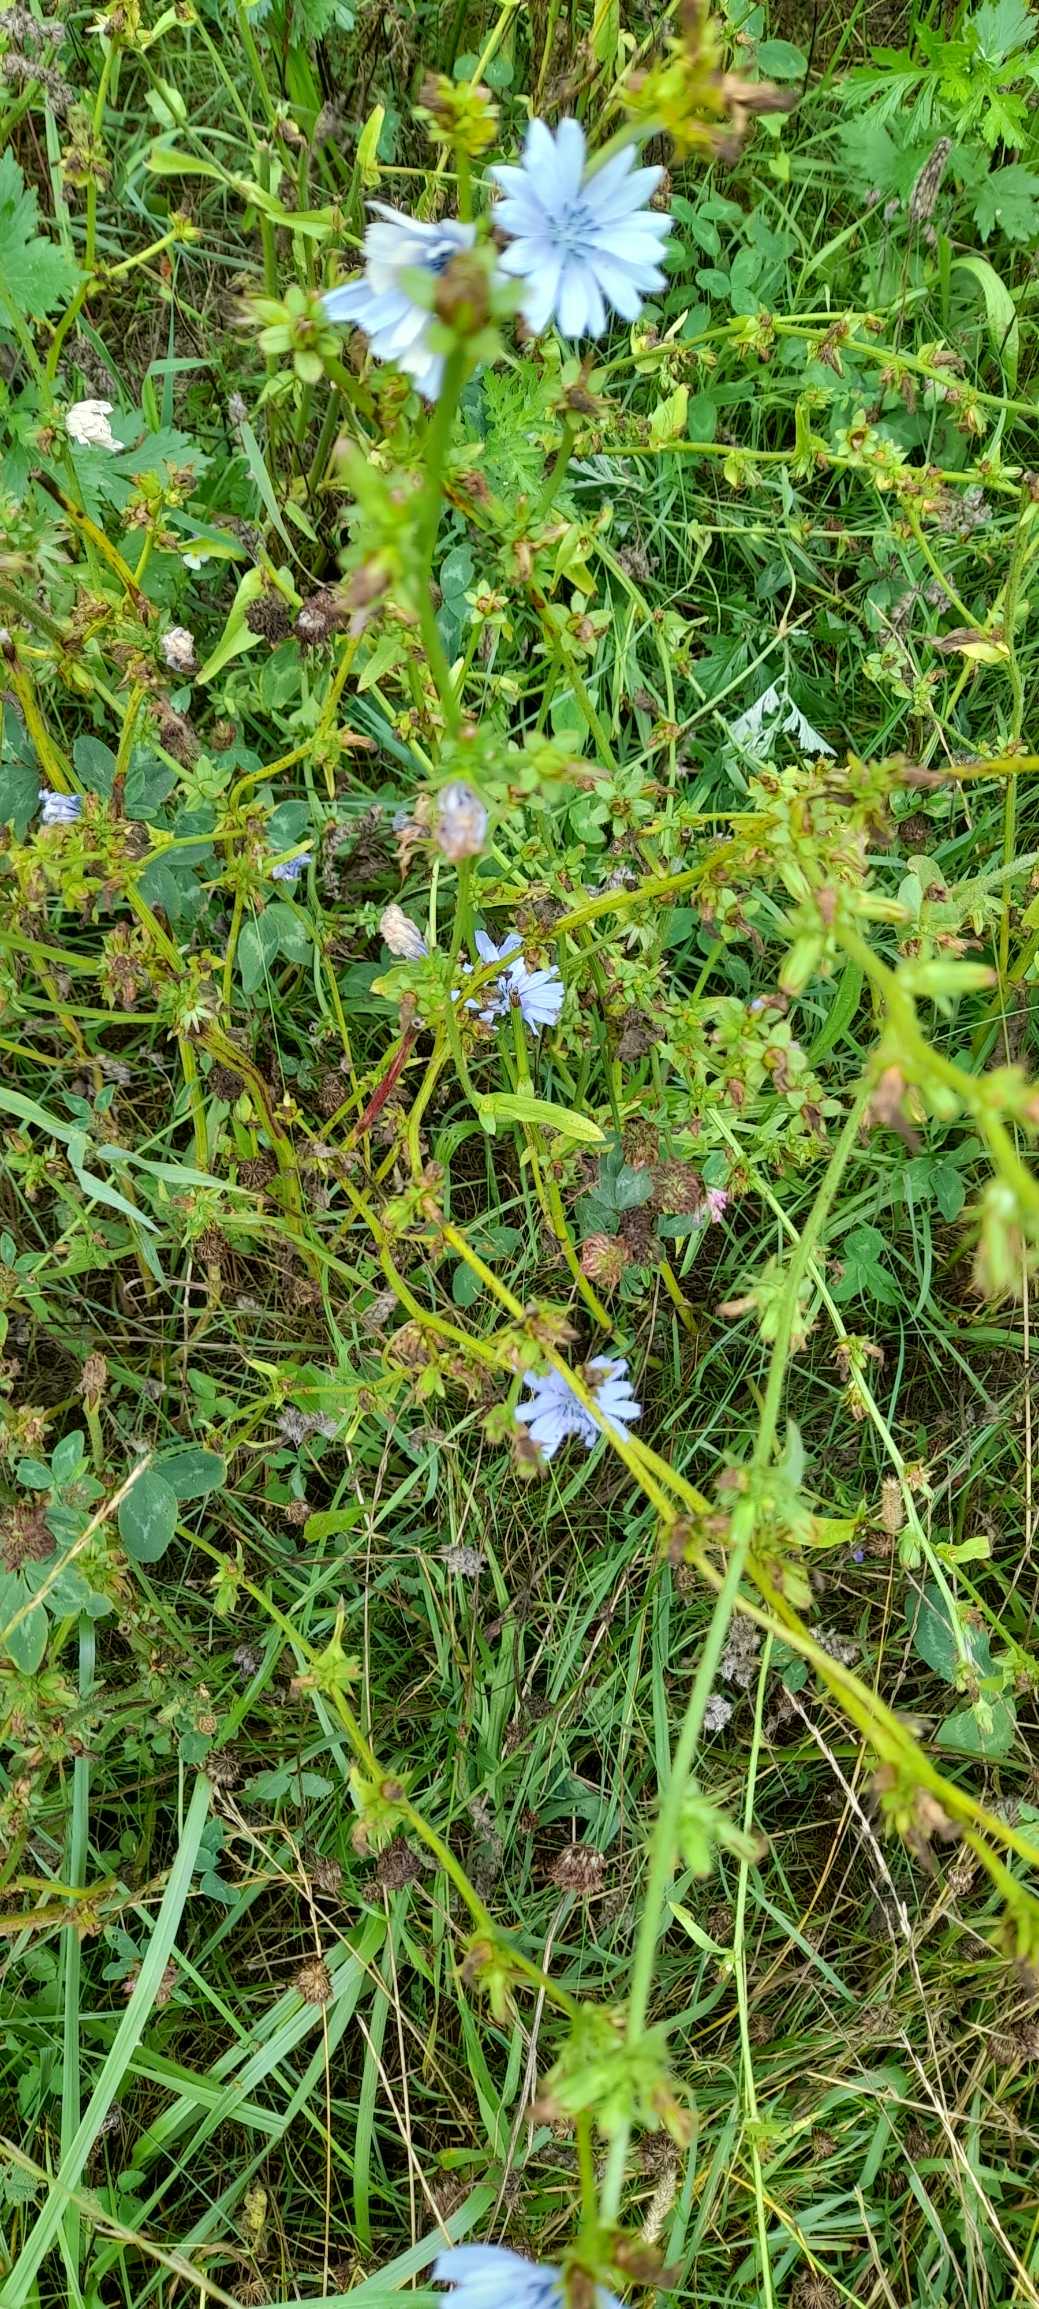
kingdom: Plantae
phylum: Tracheophyta
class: Magnoliopsida
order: Asterales
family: Asteraceae
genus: Cichorium
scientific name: Cichorium intybus
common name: Cikorie
